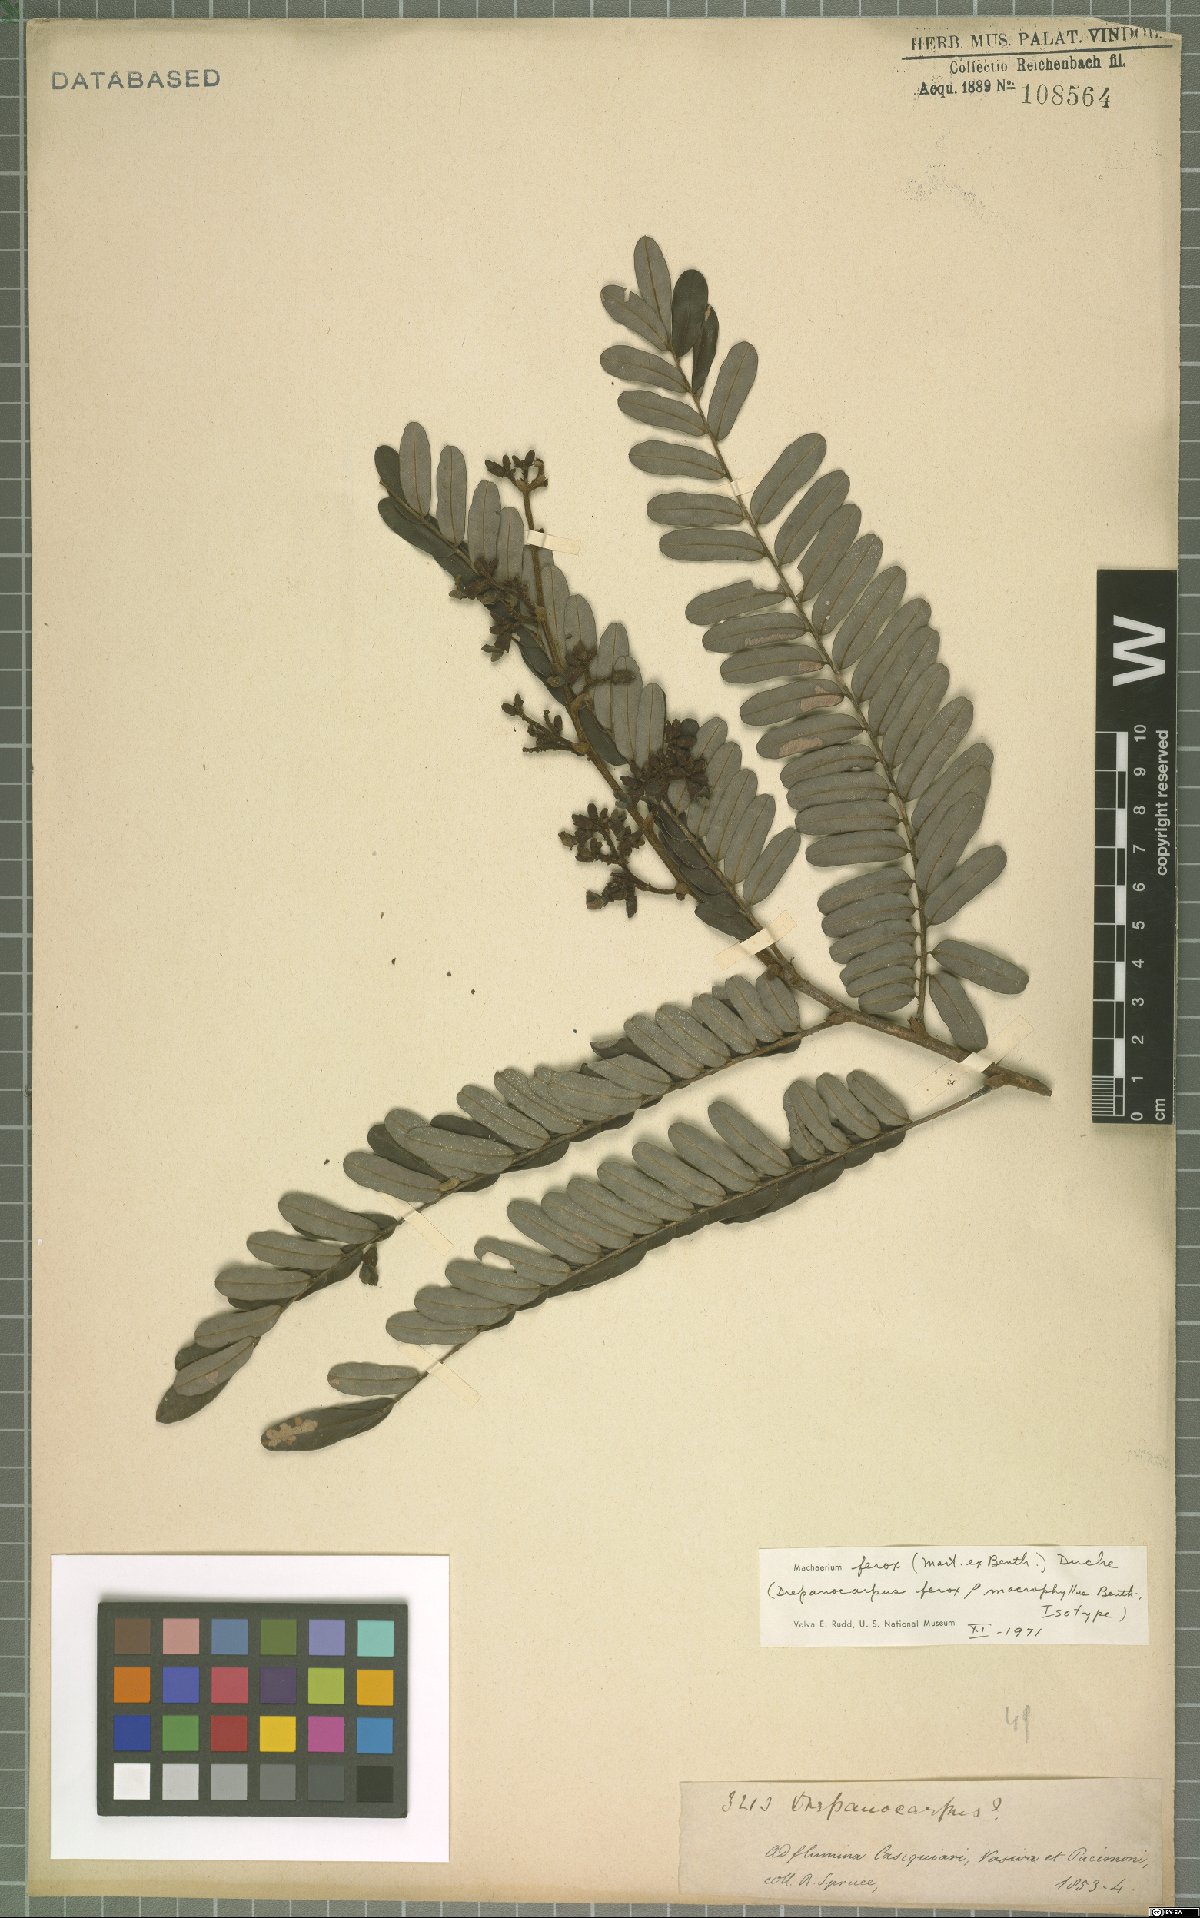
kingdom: Plantae
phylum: Tracheophyta
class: Magnoliopsida
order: Fabales
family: Fabaceae
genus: Machaerium
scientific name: Machaerium ferox
